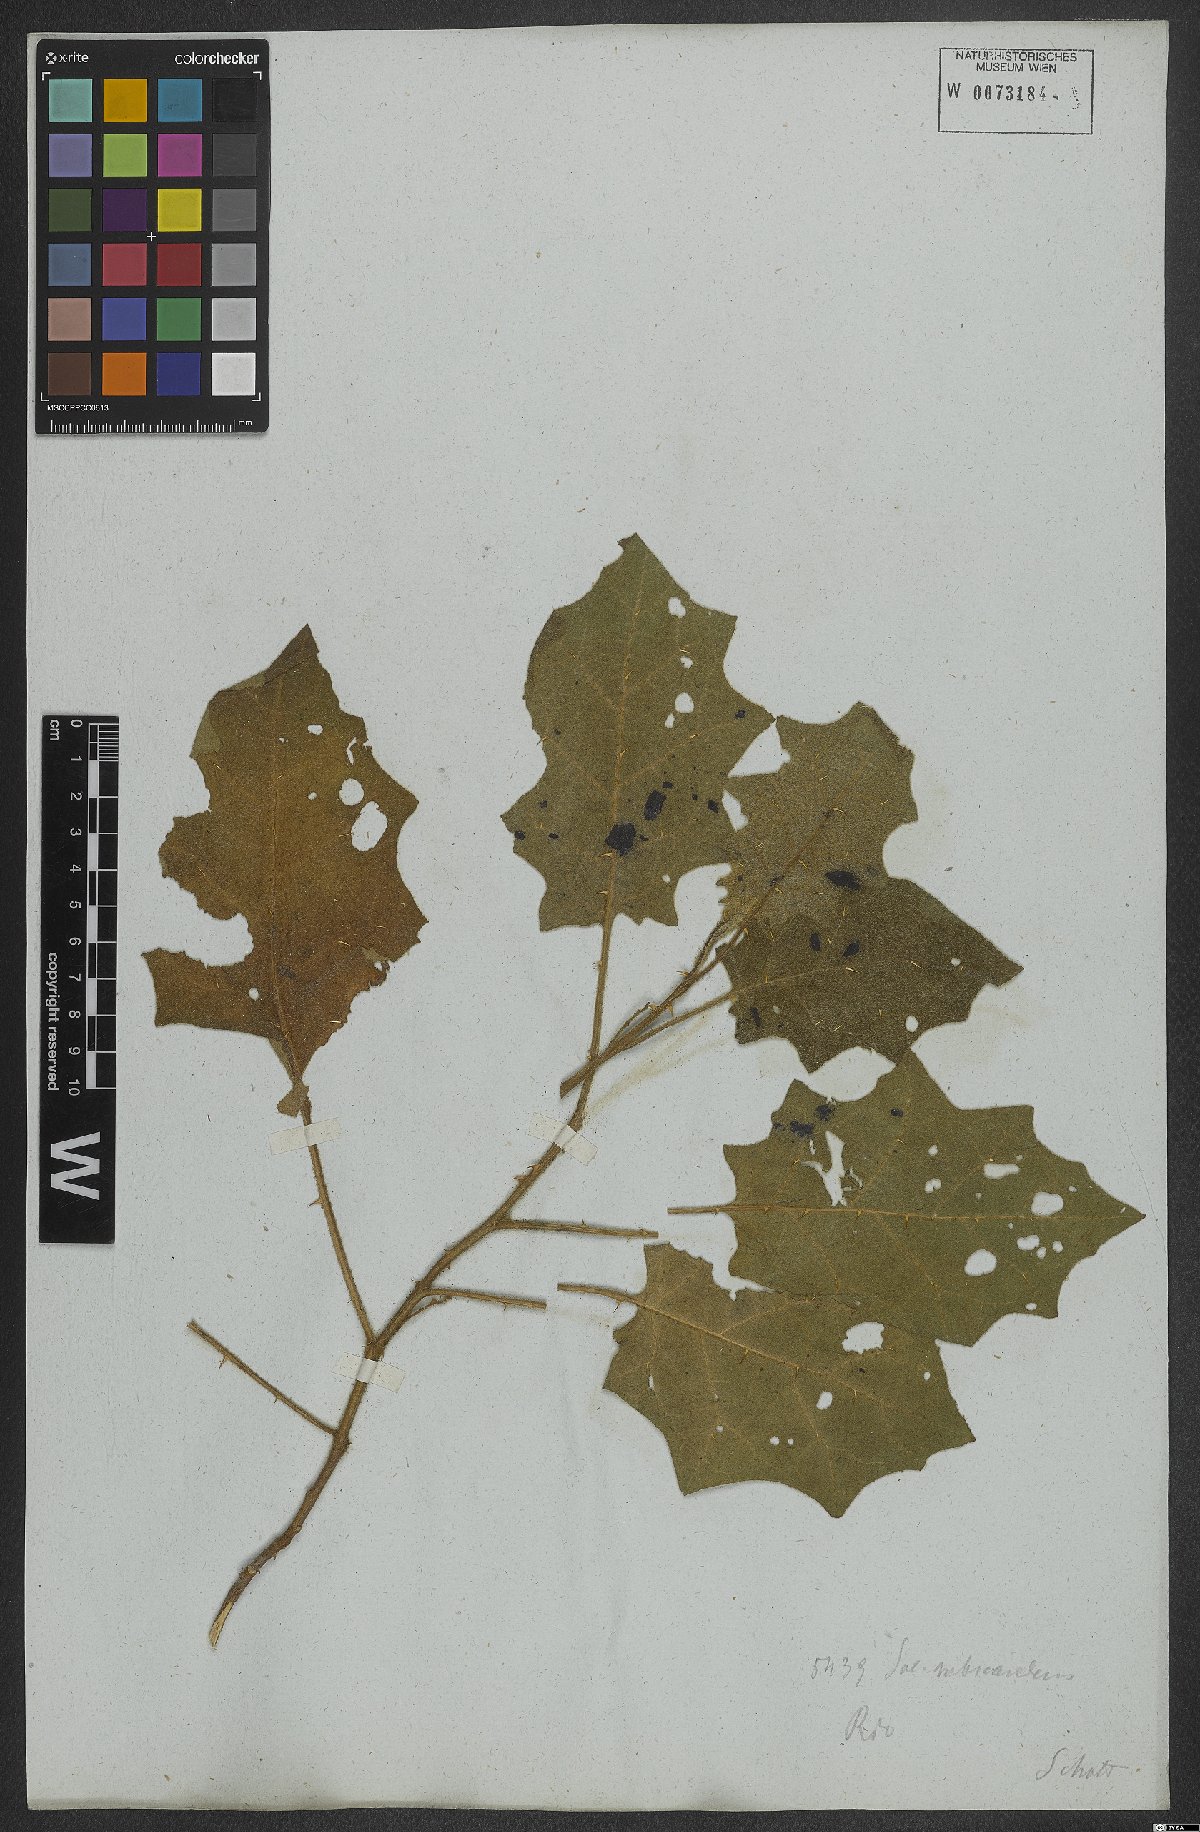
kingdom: Plantae
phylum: Tracheophyta
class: Magnoliopsida
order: Solanales
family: Solanaceae
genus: Solanum
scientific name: Solanum sublentum
